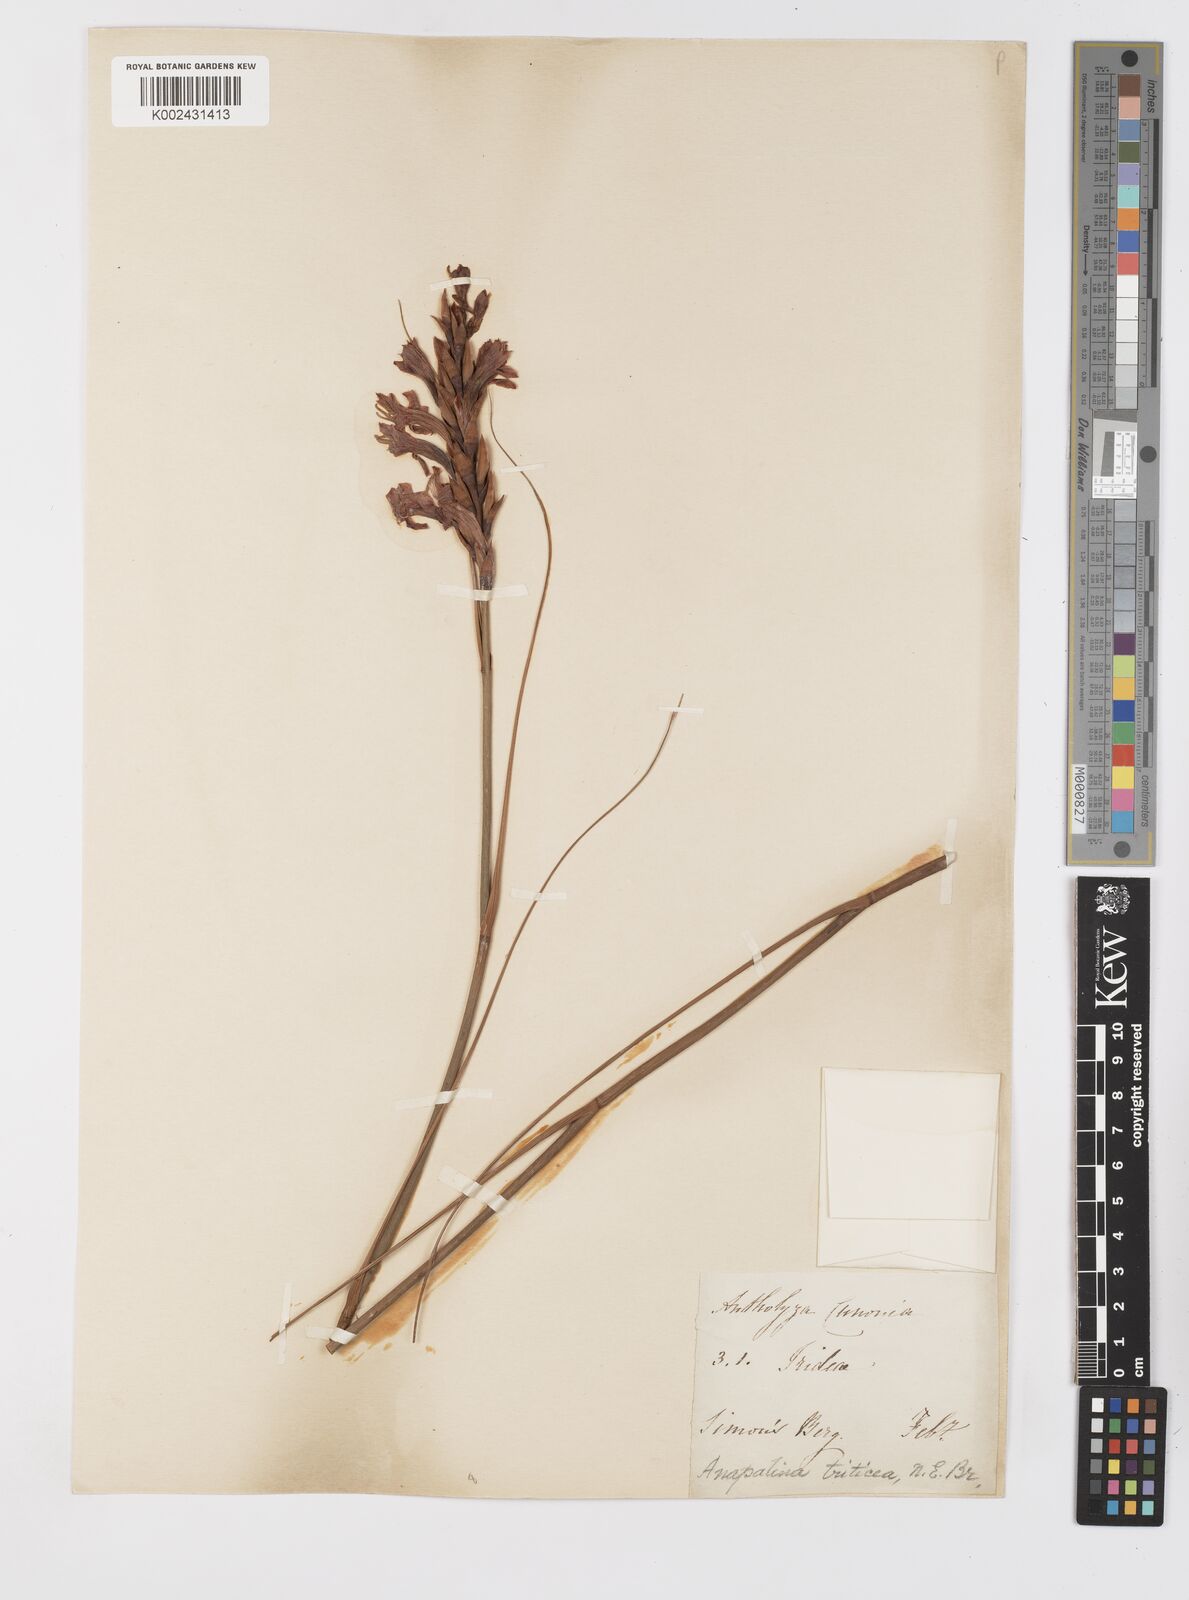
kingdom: Plantae
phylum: Tracheophyta
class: Liliopsida
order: Asparagales
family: Iridaceae
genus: Tritoniopsis
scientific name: Tritoniopsis triticea
